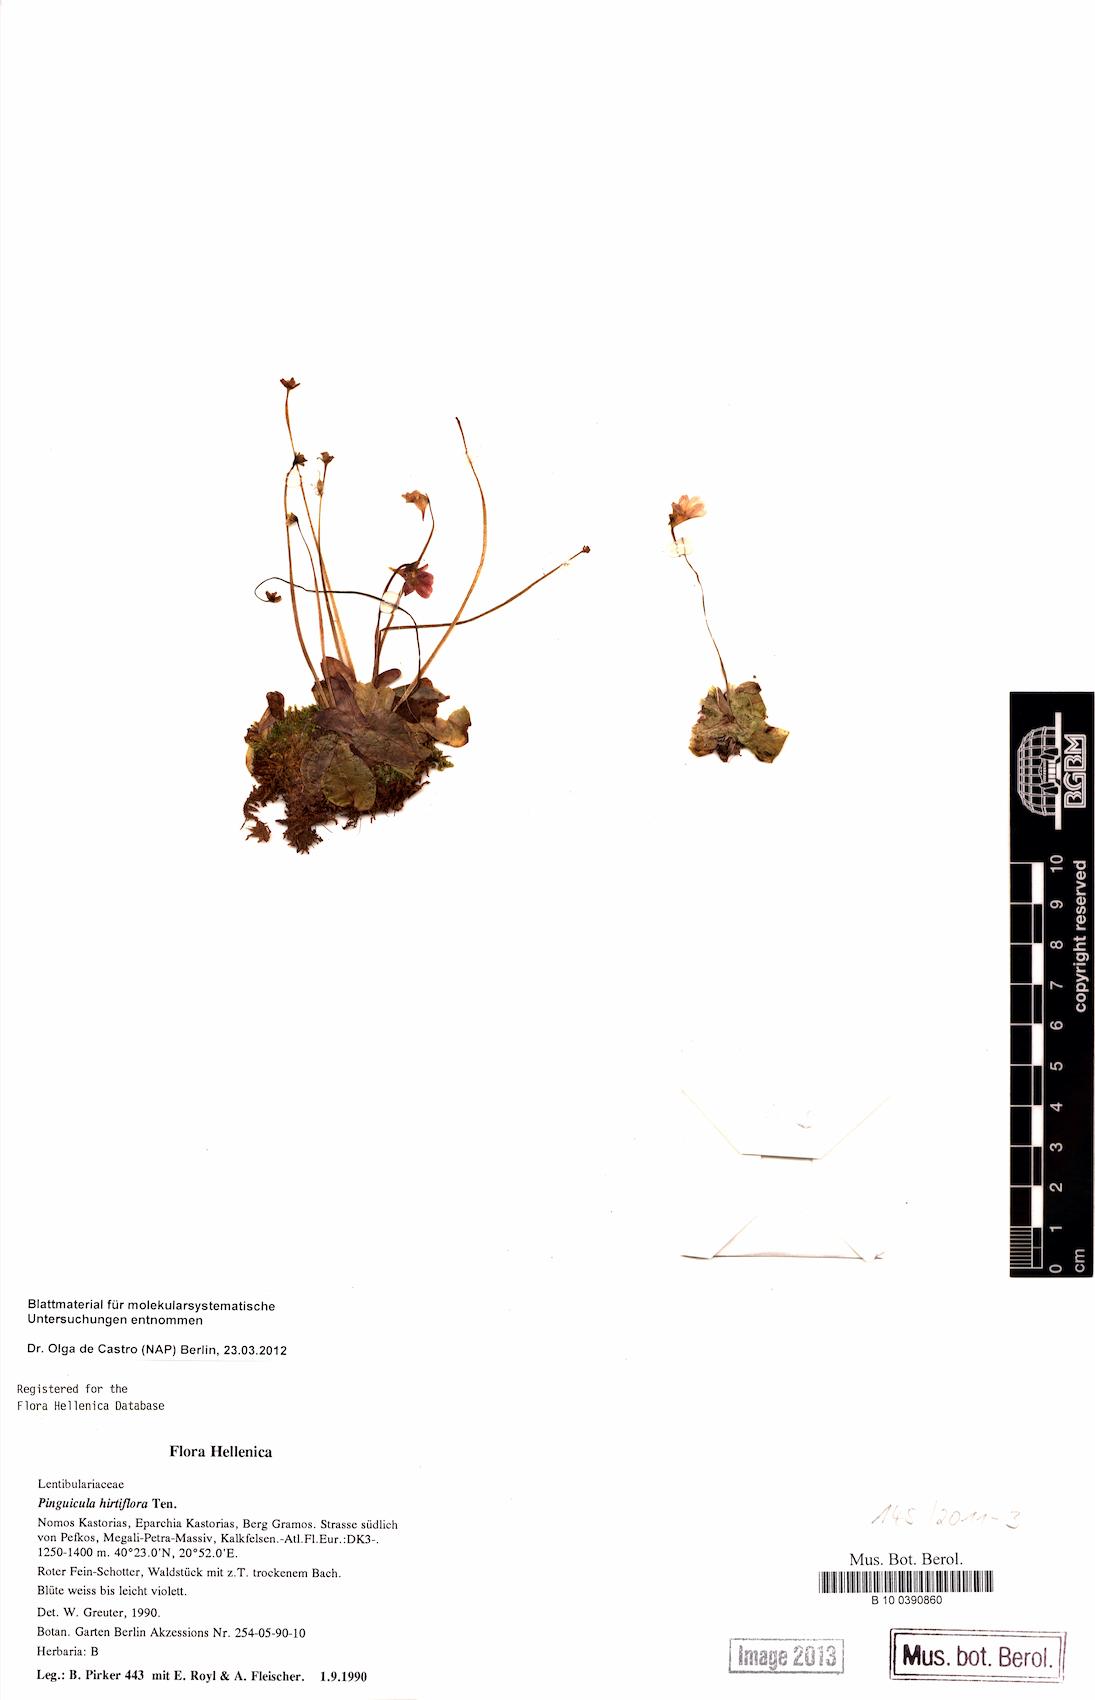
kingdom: Plantae
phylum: Tracheophyta
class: Magnoliopsida
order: Lamiales
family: Lentibulariaceae
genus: Pinguicula
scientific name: Pinguicula crystallina
